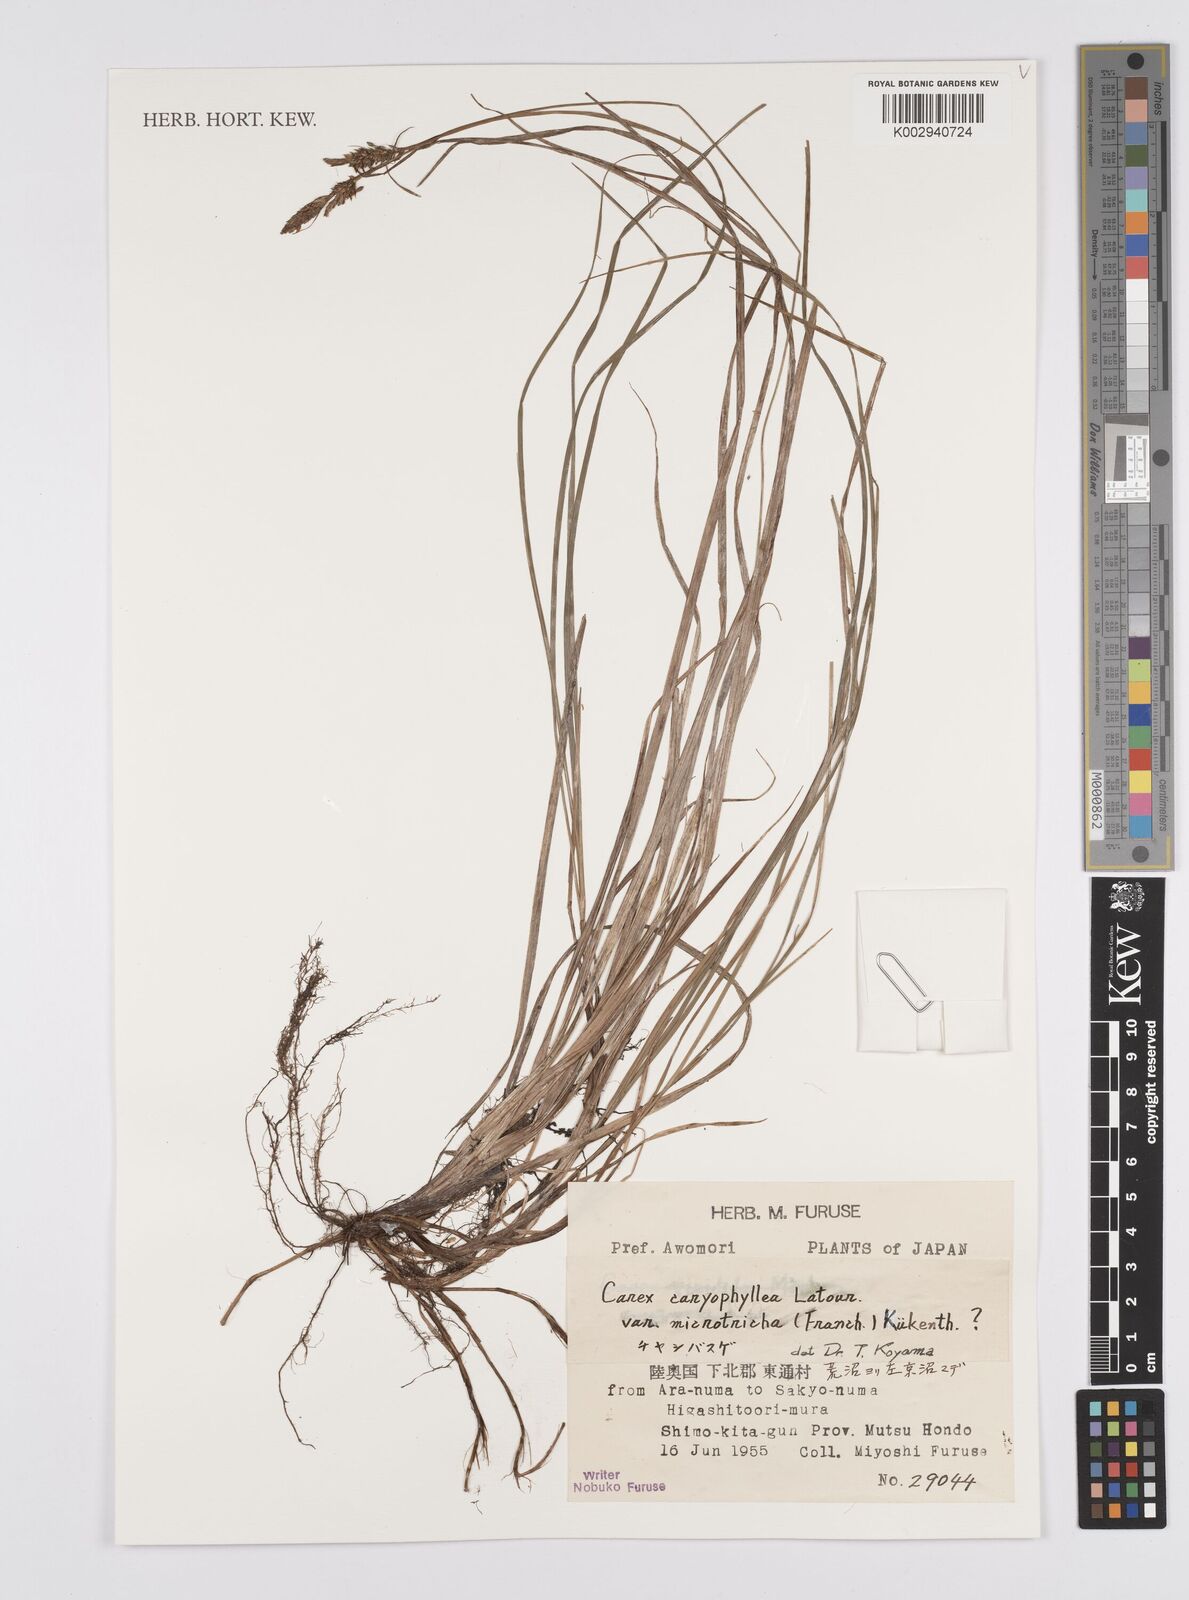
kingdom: Plantae
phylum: Tracheophyta
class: Liliopsida
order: Poales
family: Cyperaceae
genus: Carex
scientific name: Carex caryophyllea
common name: Spring sedge
